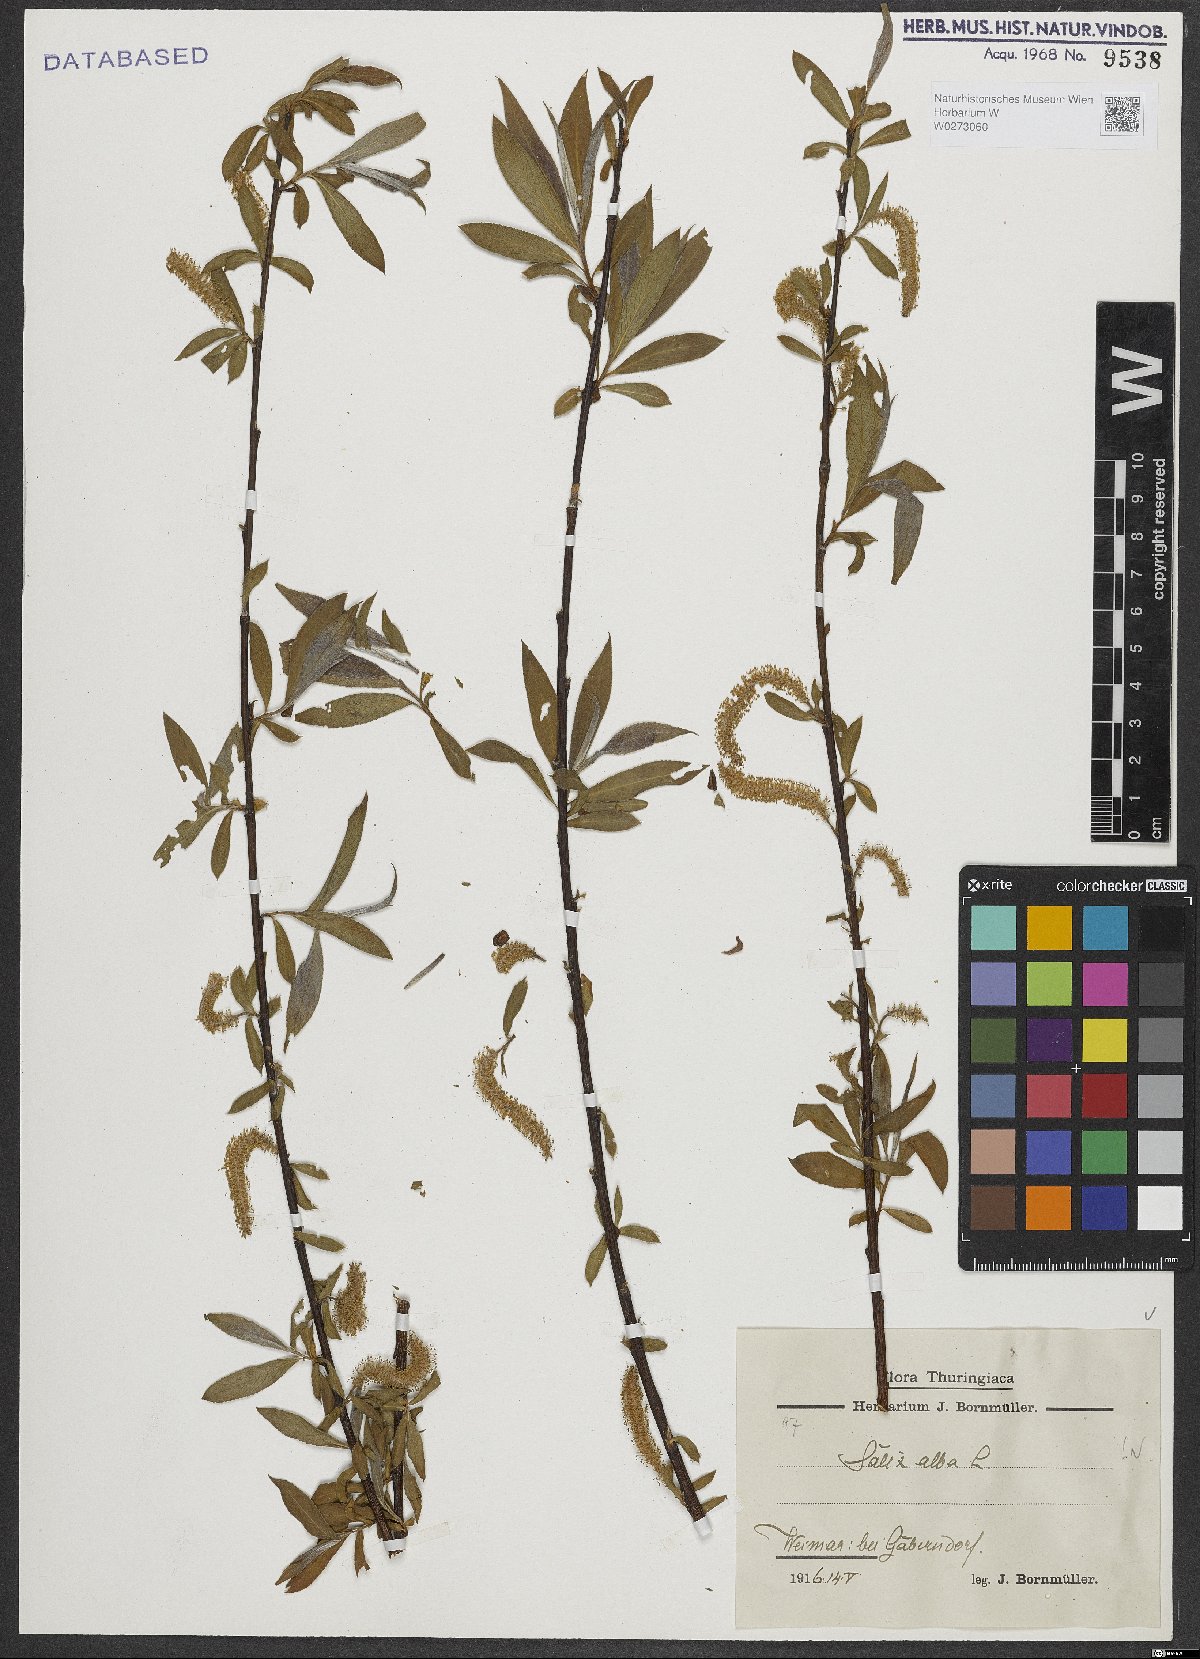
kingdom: Plantae
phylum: Tracheophyta
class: Magnoliopsida
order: Malpighiales
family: Salicaceae
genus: Salix
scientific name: Salix alba
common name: White willow
